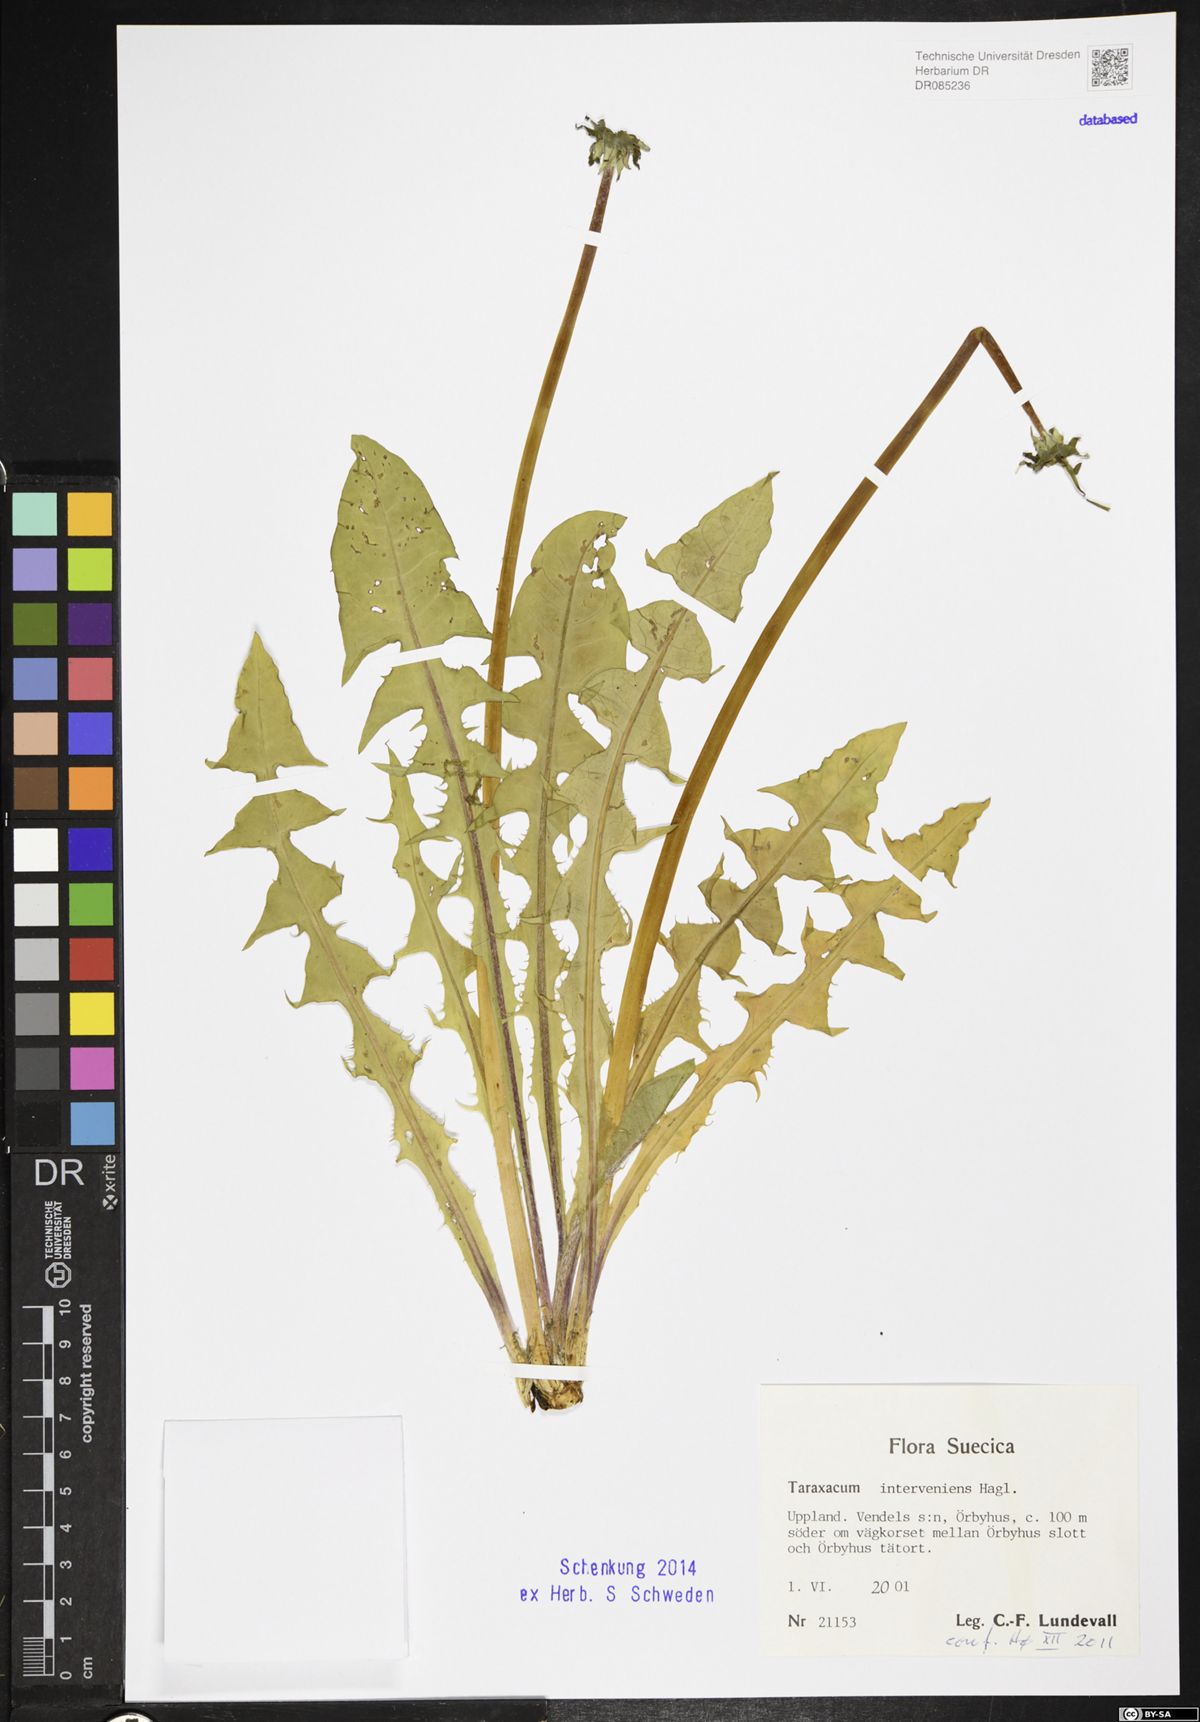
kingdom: Plantae
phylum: Tracheophyta
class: Magnoliopsida
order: Asterales
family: Asteraceae
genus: Taraxacum
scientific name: Taraxacum interveniens
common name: City dandelion
